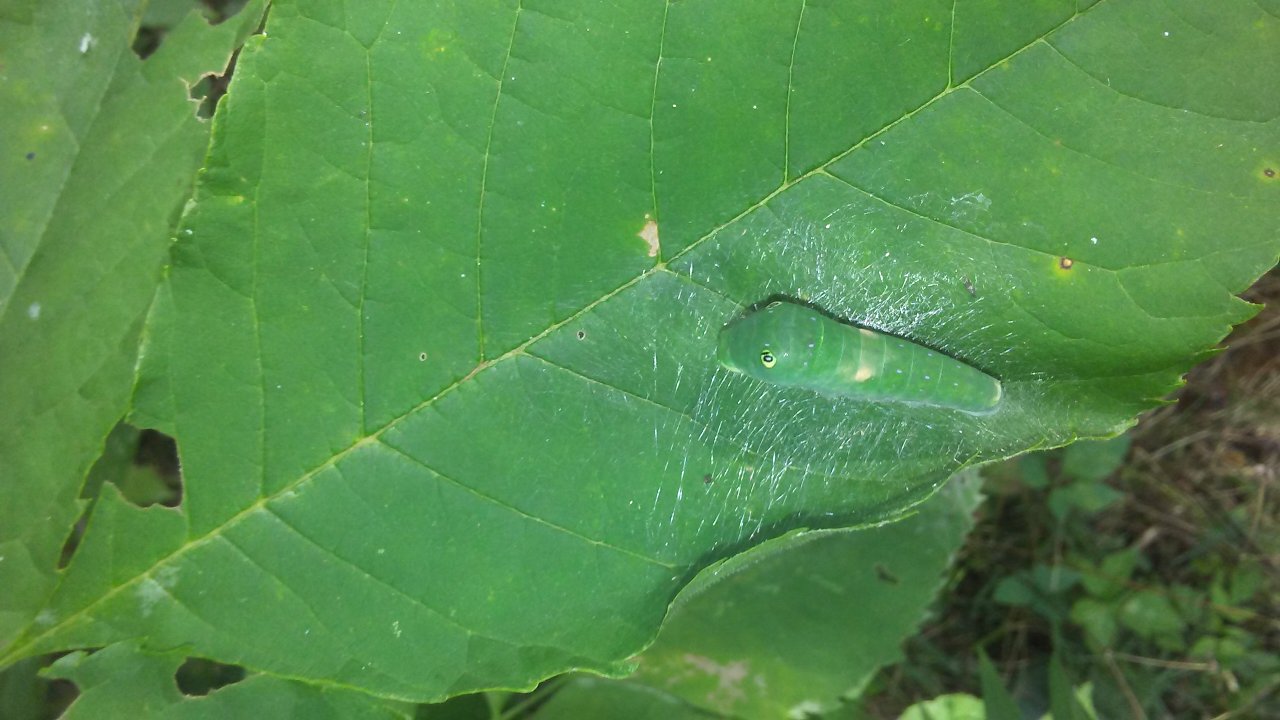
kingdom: Animalia
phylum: Arthropoda
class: Insecta
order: Lepidoptera
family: Papilionidae
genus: Pterourus
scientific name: Pterourus glaucus
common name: Eastern Tiger Swallowtail
